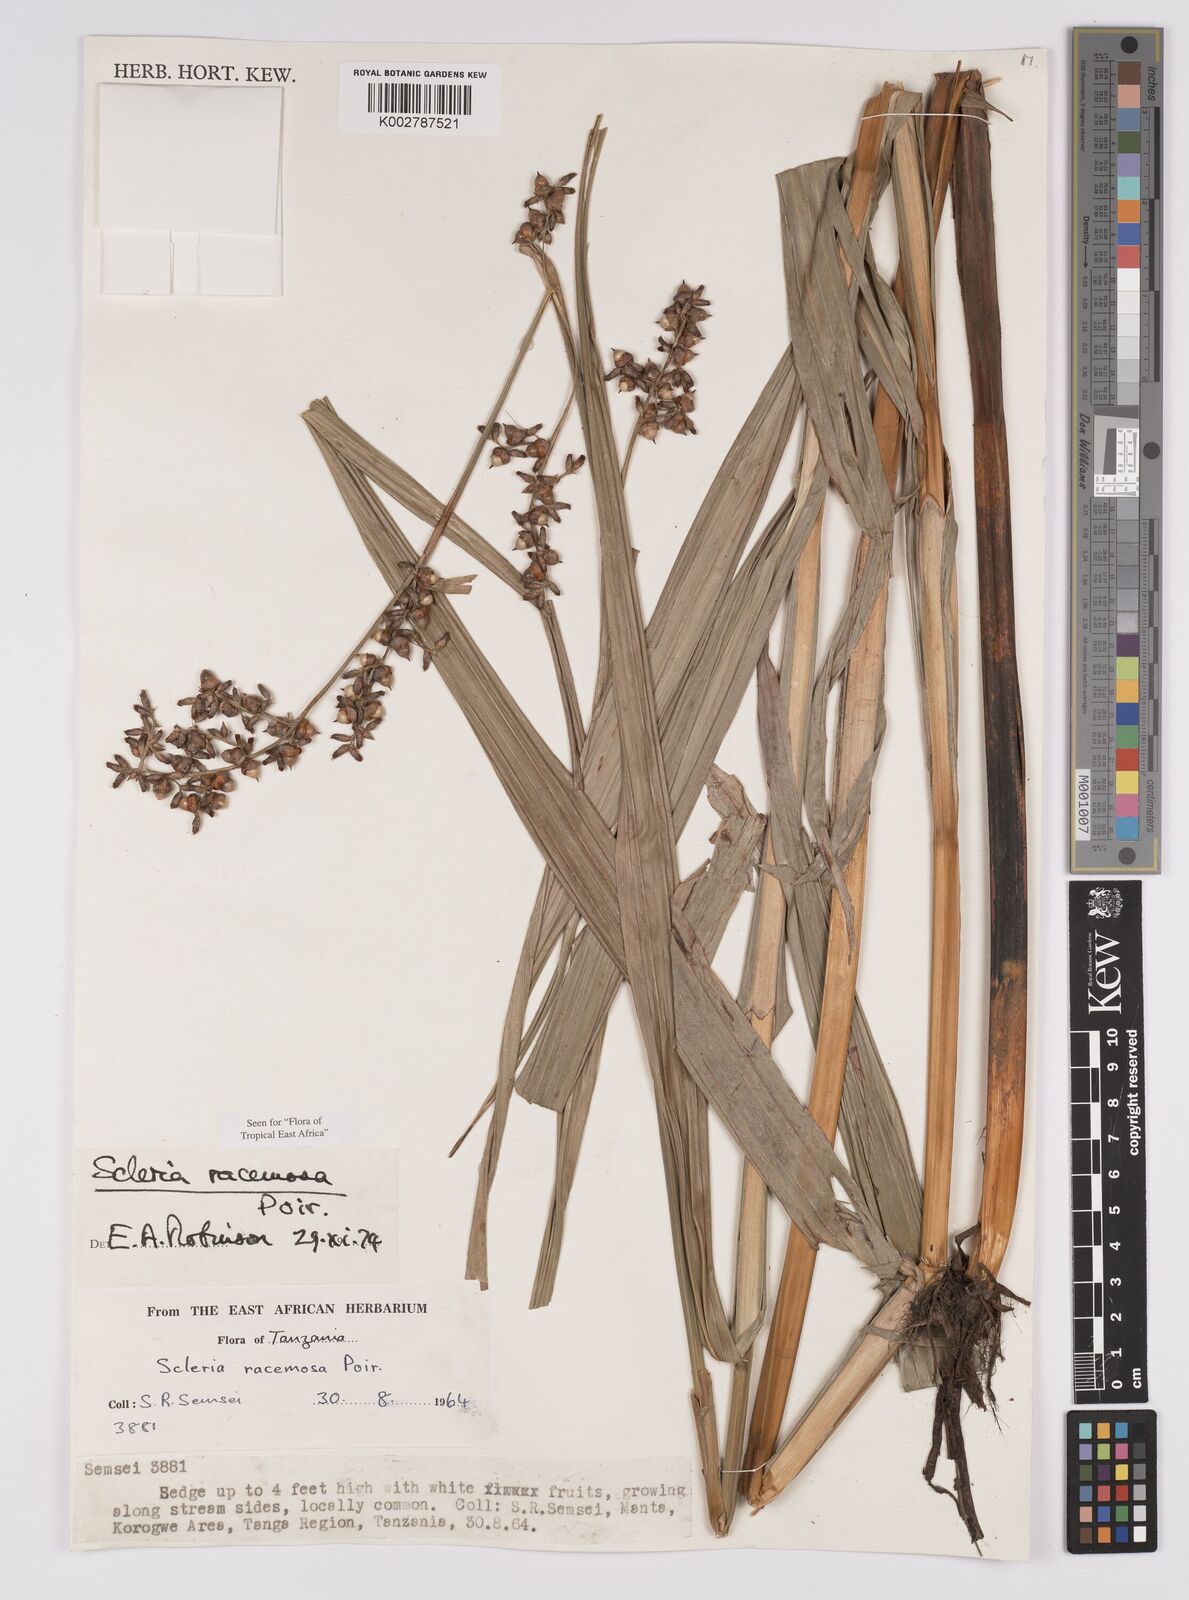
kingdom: Plantae
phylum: Tracheophyta
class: Liliopsida
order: Poales
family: Cyperaceae
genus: Scleria
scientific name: Scleria racemosa
